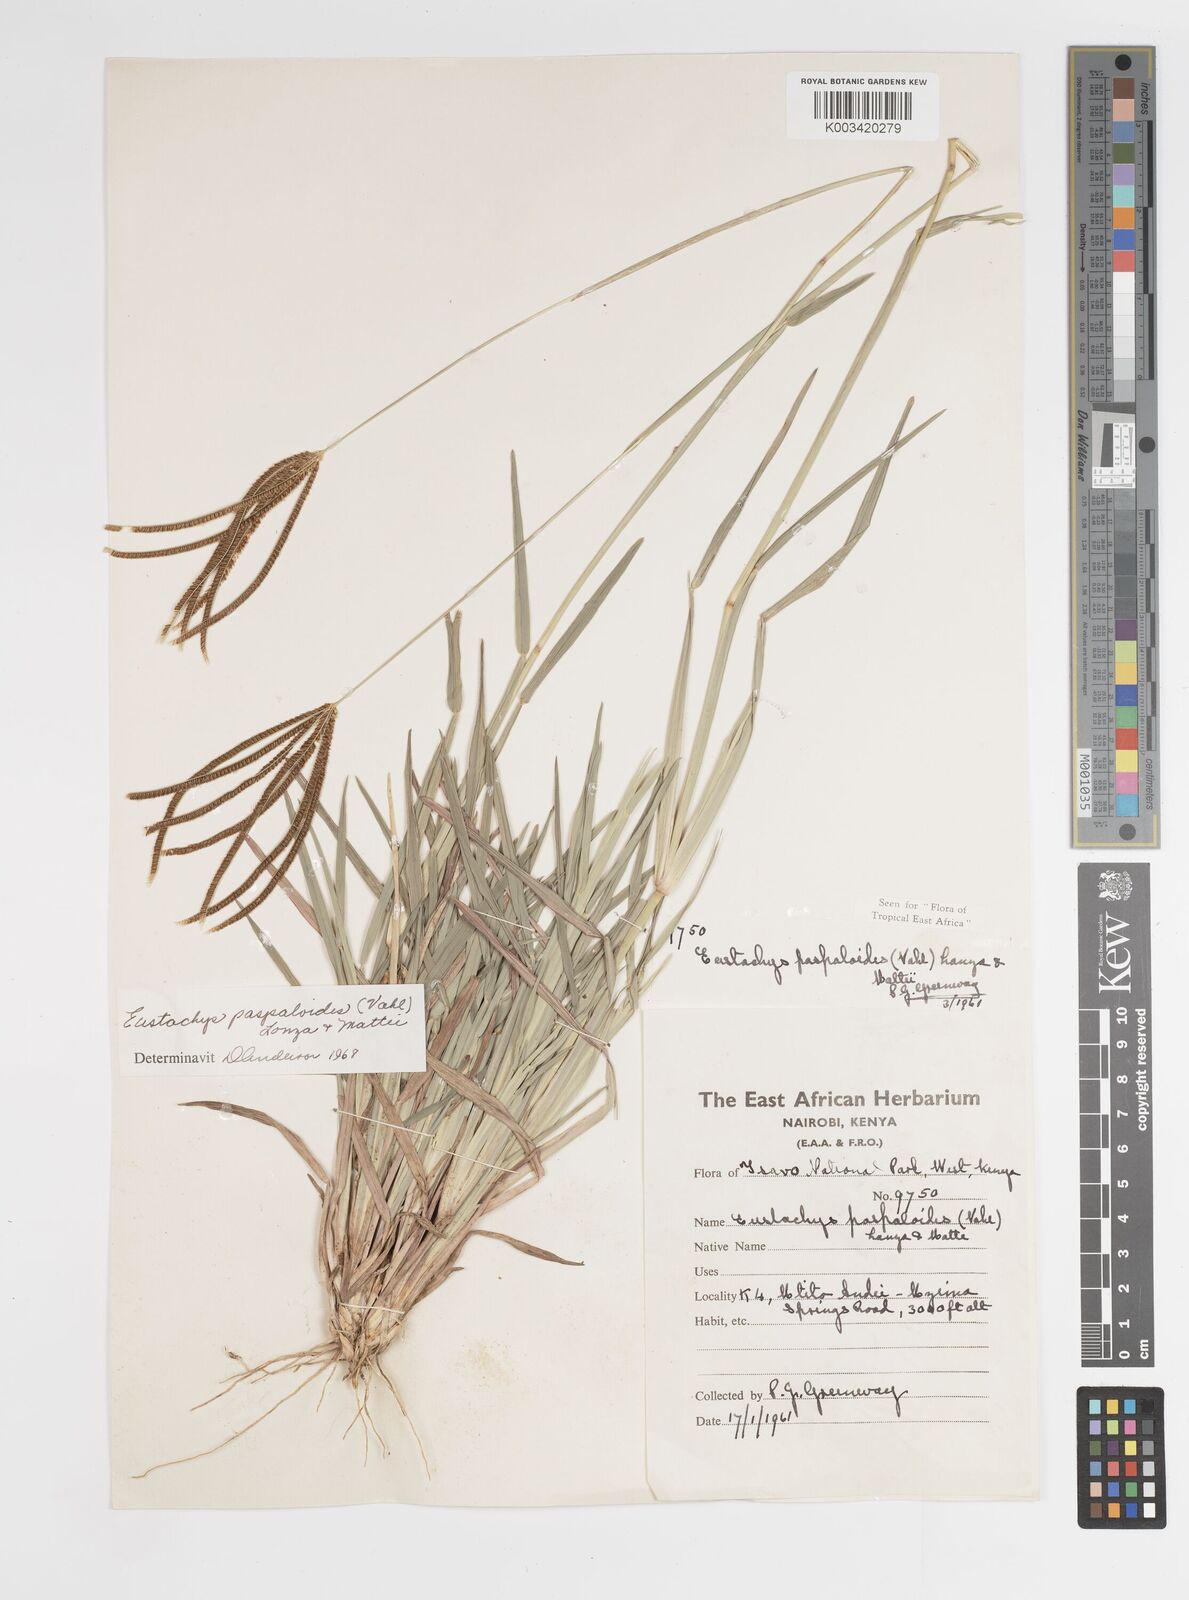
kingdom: Plantae
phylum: Tracheophyta
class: Liliopsida
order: Poales
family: Poaceae
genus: Eustachys
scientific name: Eustachys paspaloides
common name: Caribbean fingergrass
